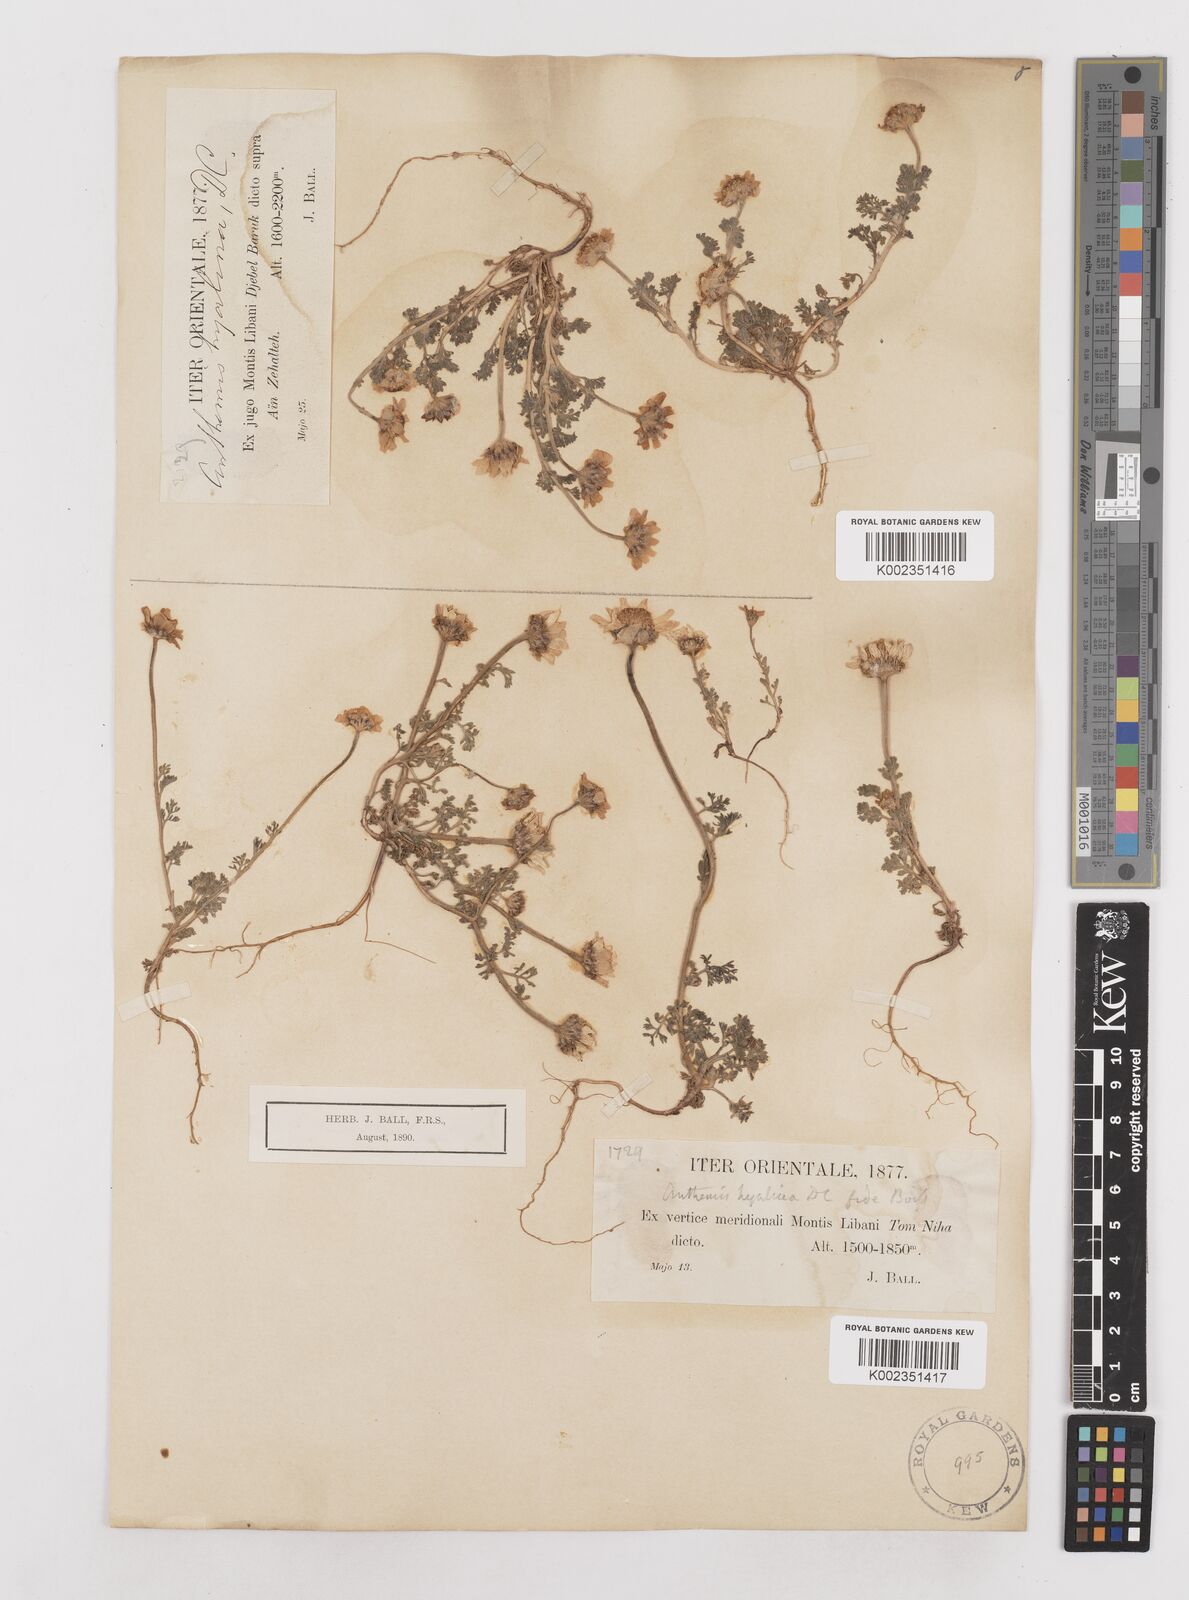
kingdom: Plantae
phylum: Tracheophyta
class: Magnoliopsida
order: Asterales
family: Asteraceae
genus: Anthemis
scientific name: Anthemis hyalina
